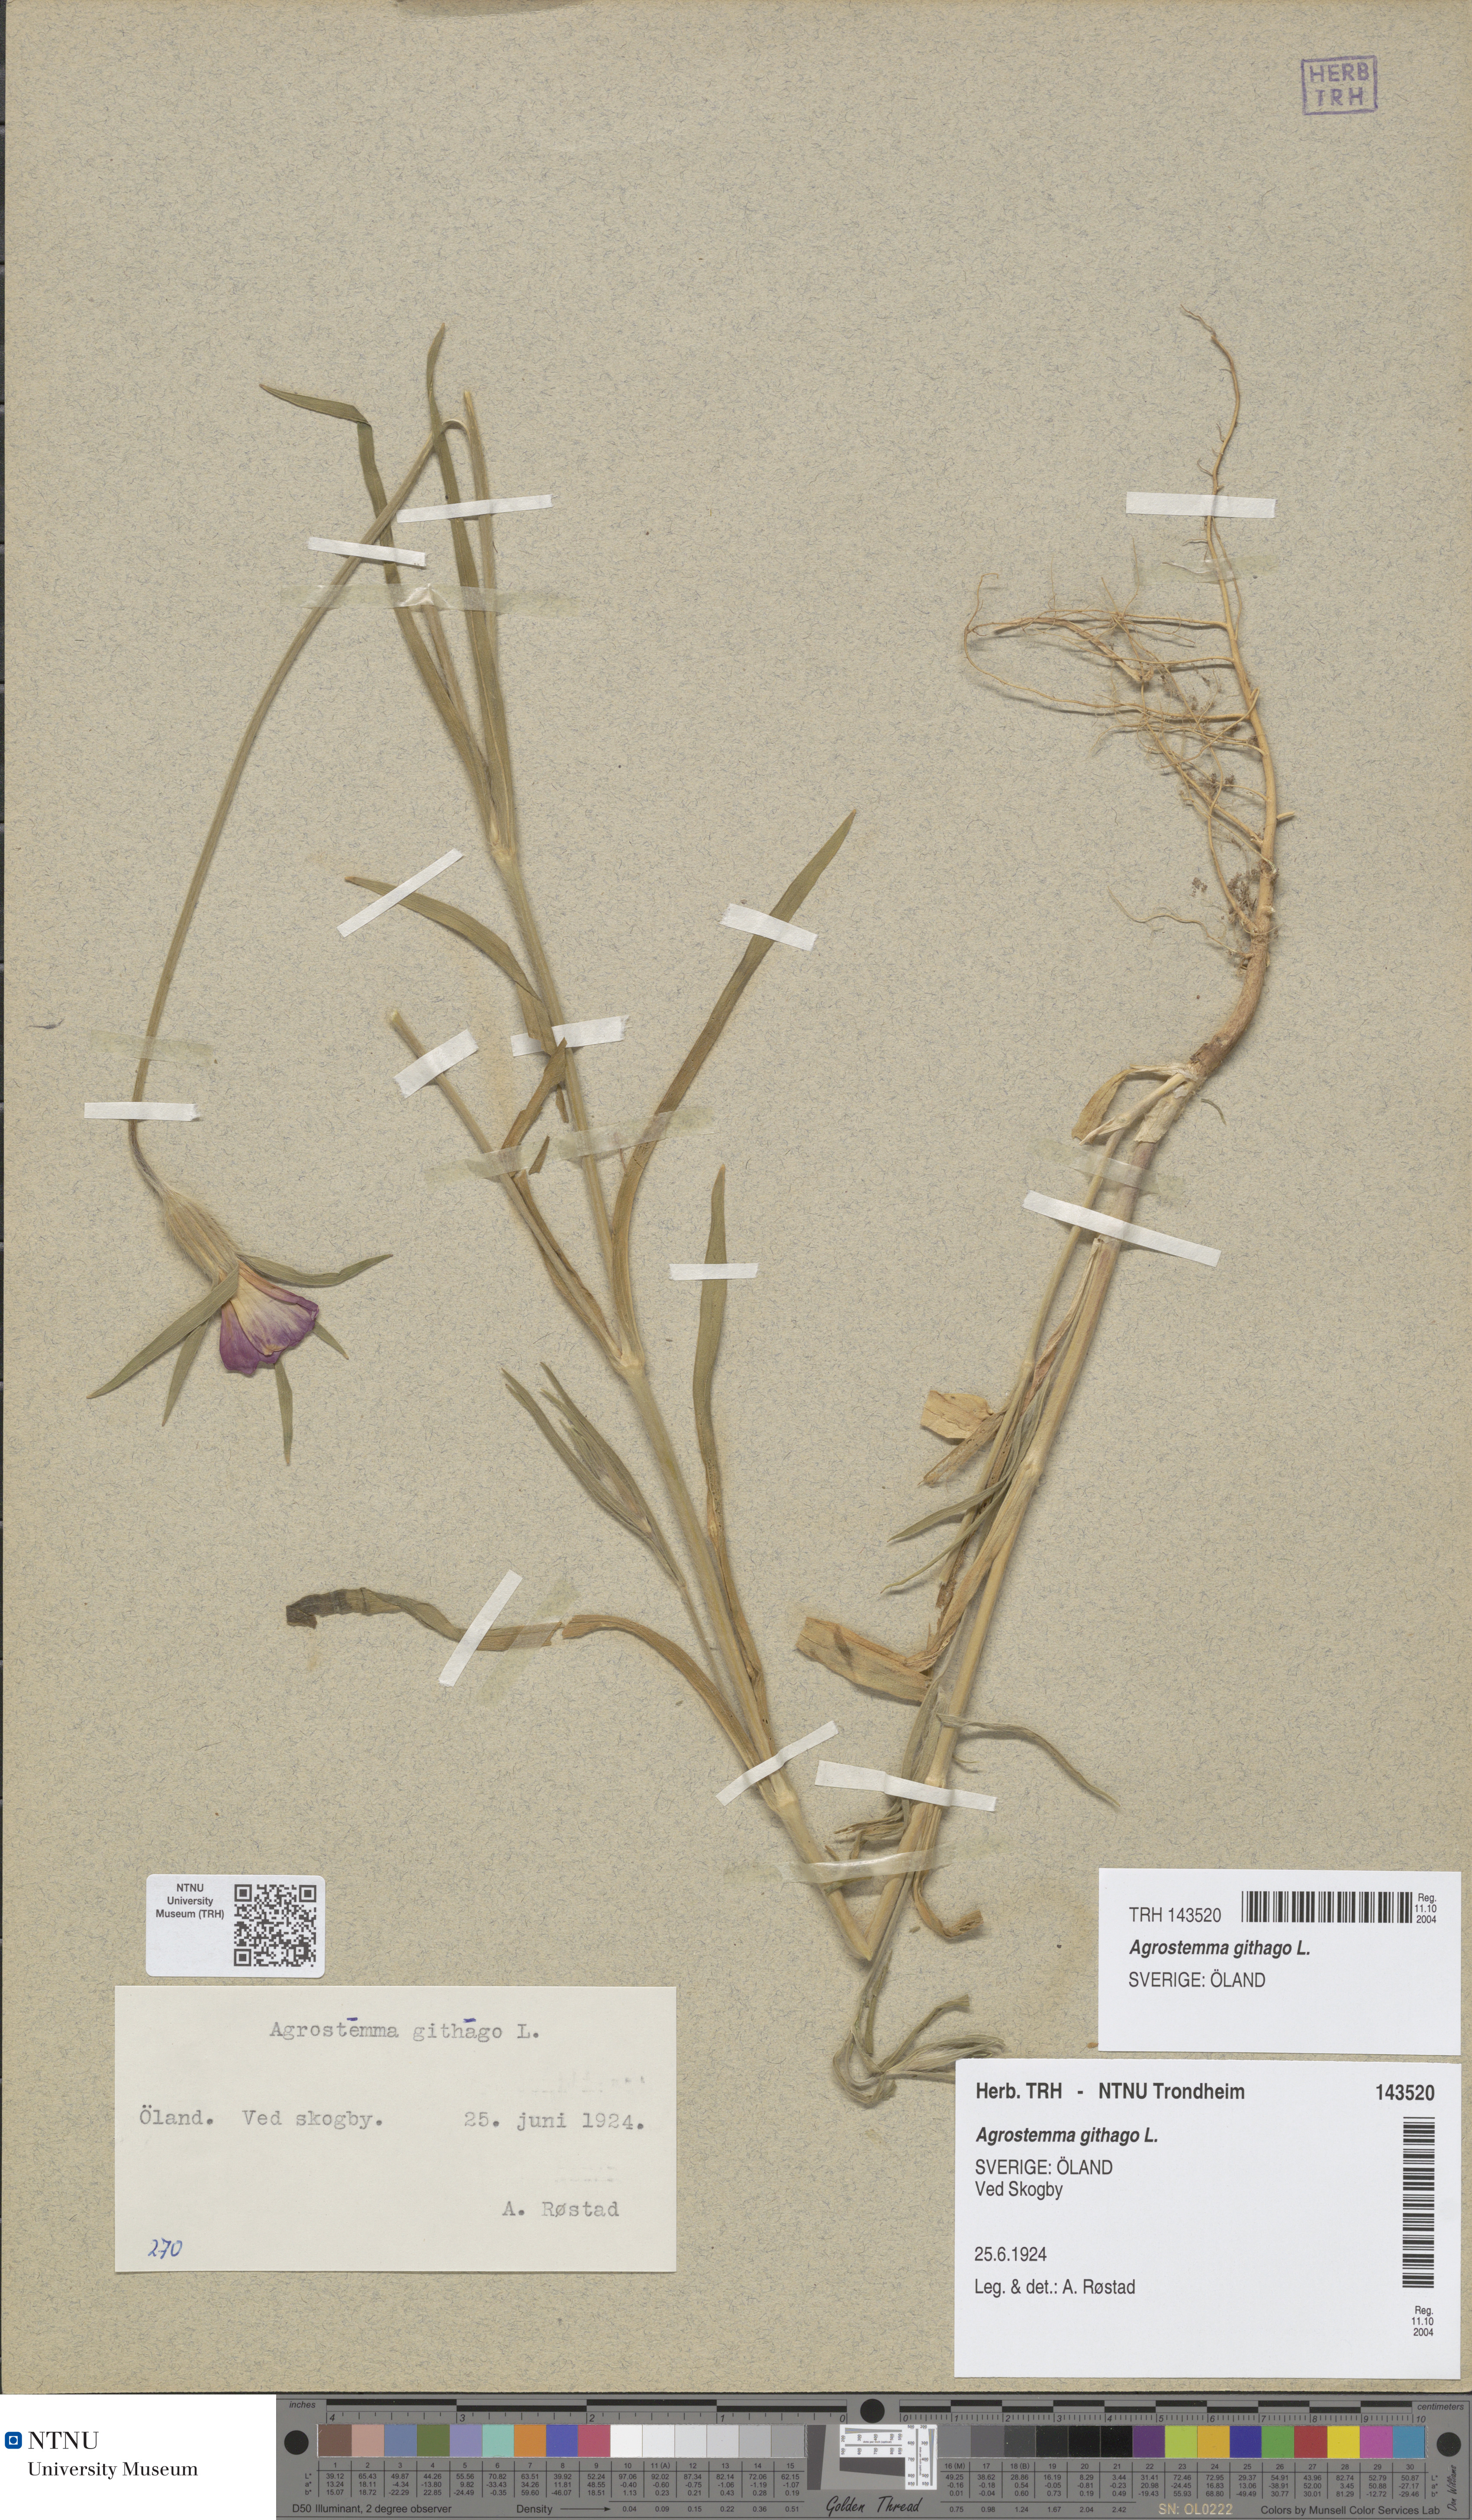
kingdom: Plantae
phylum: Tracheophyta
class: Magnoliopsida
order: Caryophyllales
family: Caryophyllaceae
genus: Agrostemma
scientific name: Agrostemma githago
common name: Common corncockle
